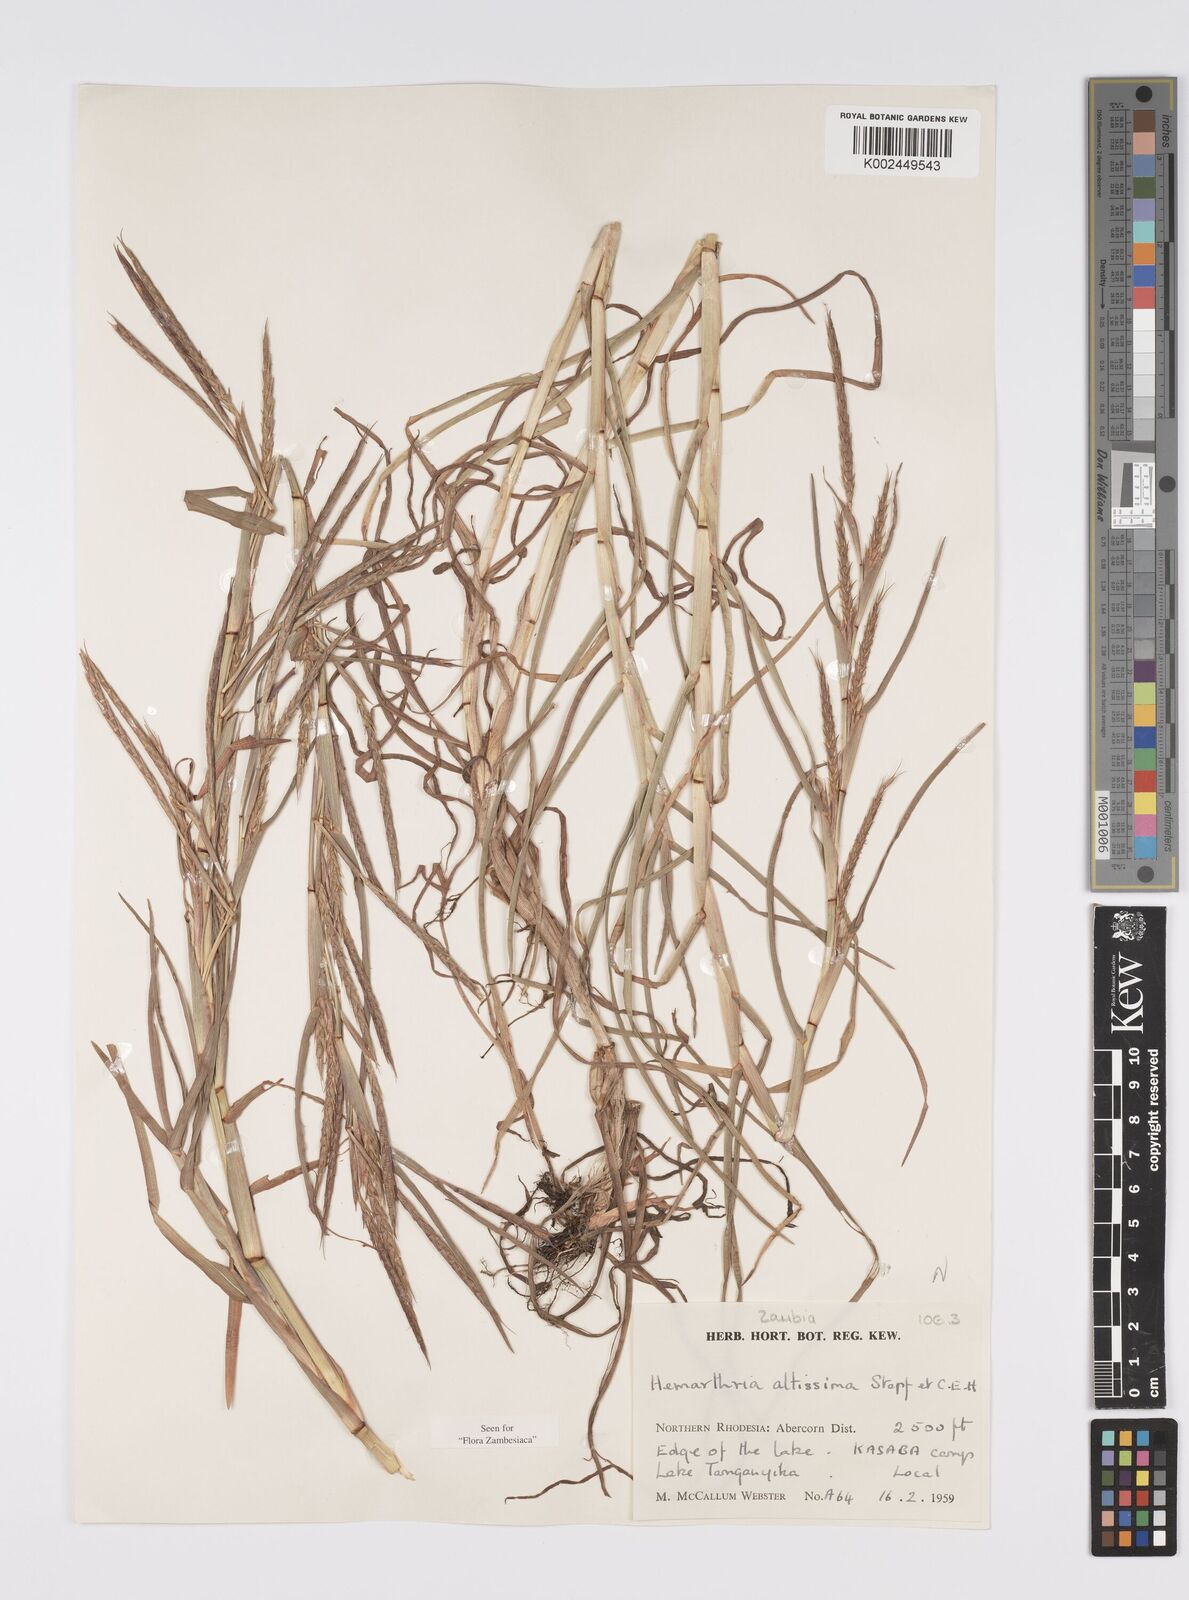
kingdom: Plantae
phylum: Tracheophyta
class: Liliopsida
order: Poales
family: Poaceae
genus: Hemarthria
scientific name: Hemarthria altissima
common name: African jointgrass
